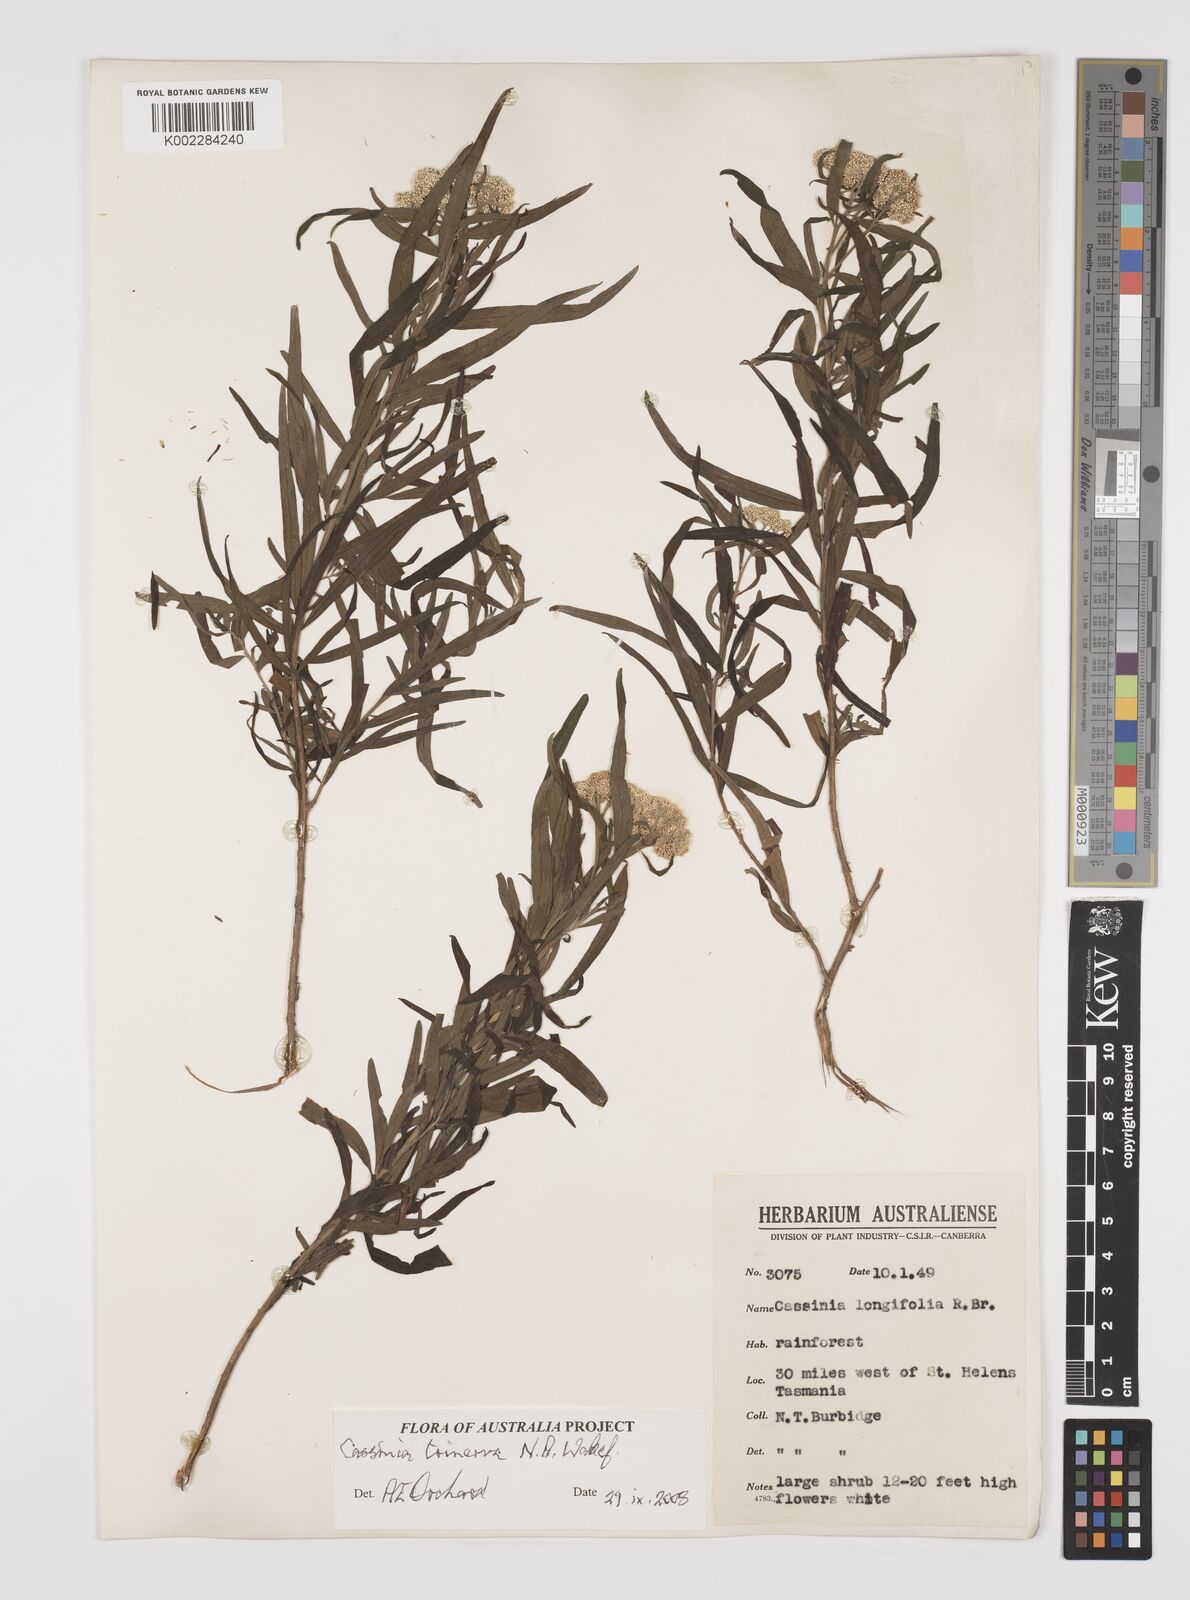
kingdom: Plantae
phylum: Tracheophyta
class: Magnoliopsida
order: Asterales
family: Asteraceae
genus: Cassinia
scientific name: Cassinia trinerva
